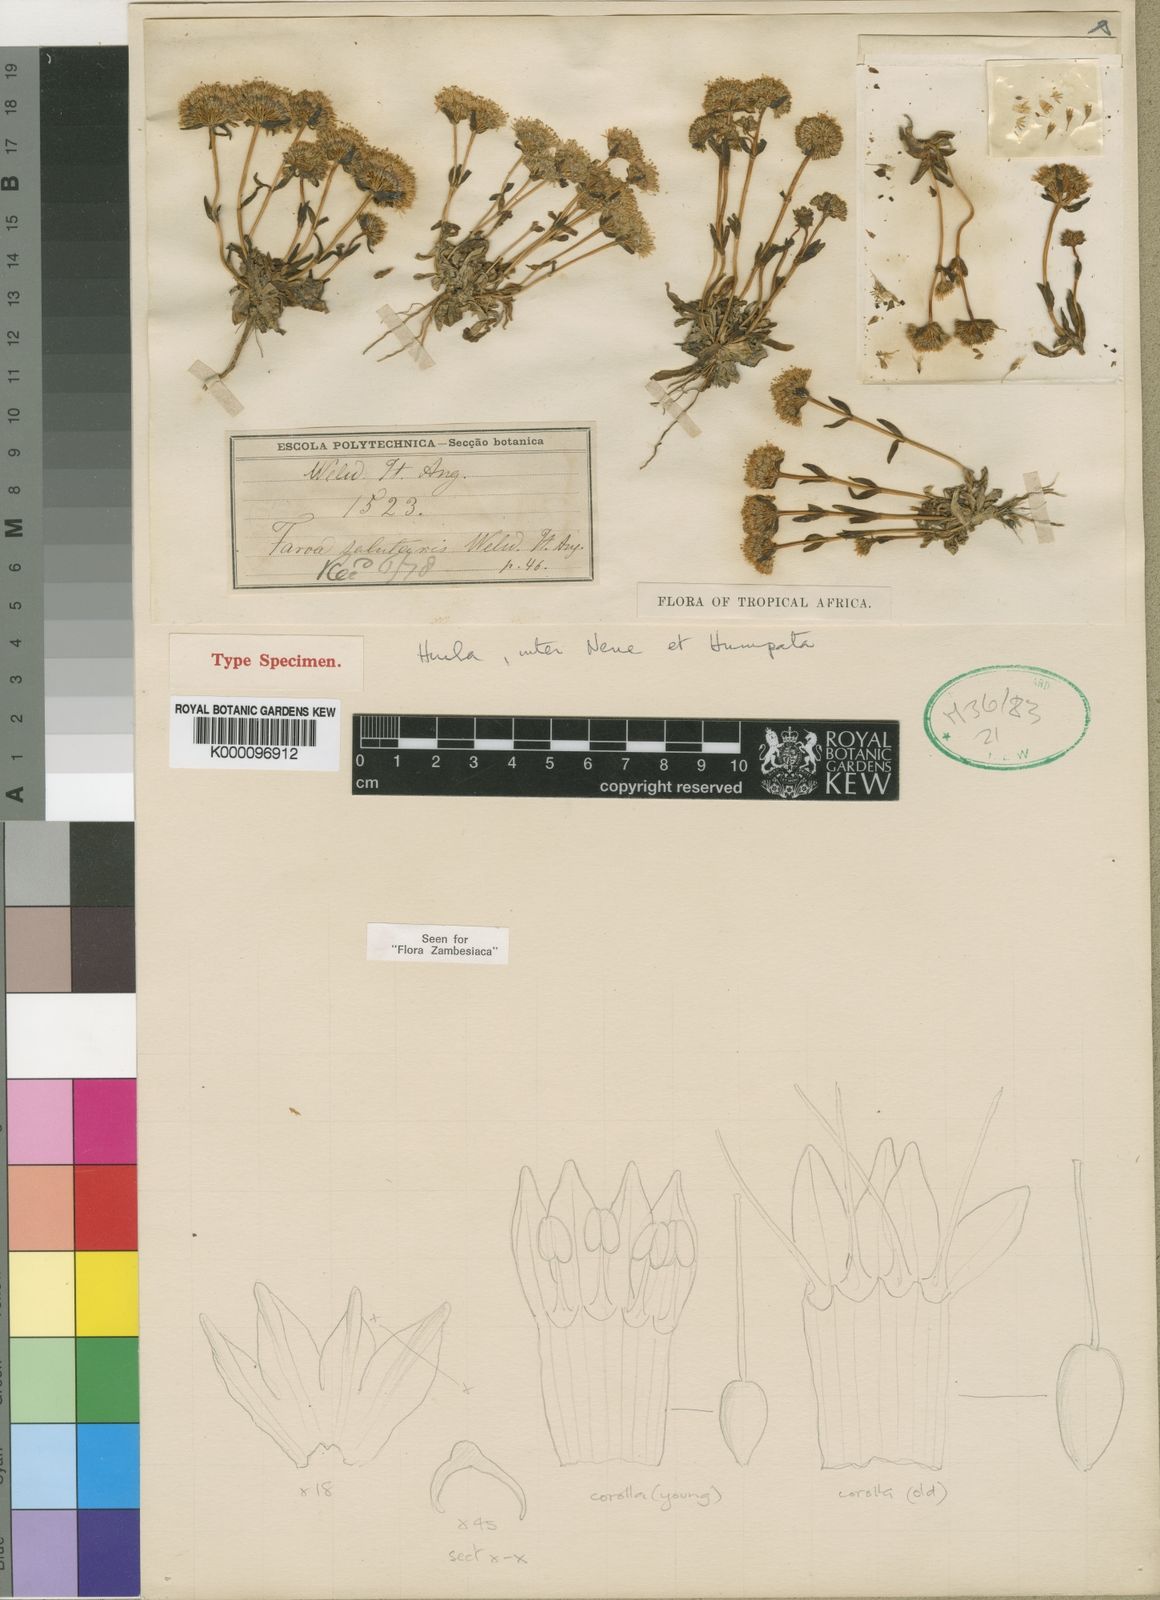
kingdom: Plantae
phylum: Tracheophyta
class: Magnoliopsida
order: Gentianales
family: Gentianaceae
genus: Faroa
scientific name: Faroa salutaris
